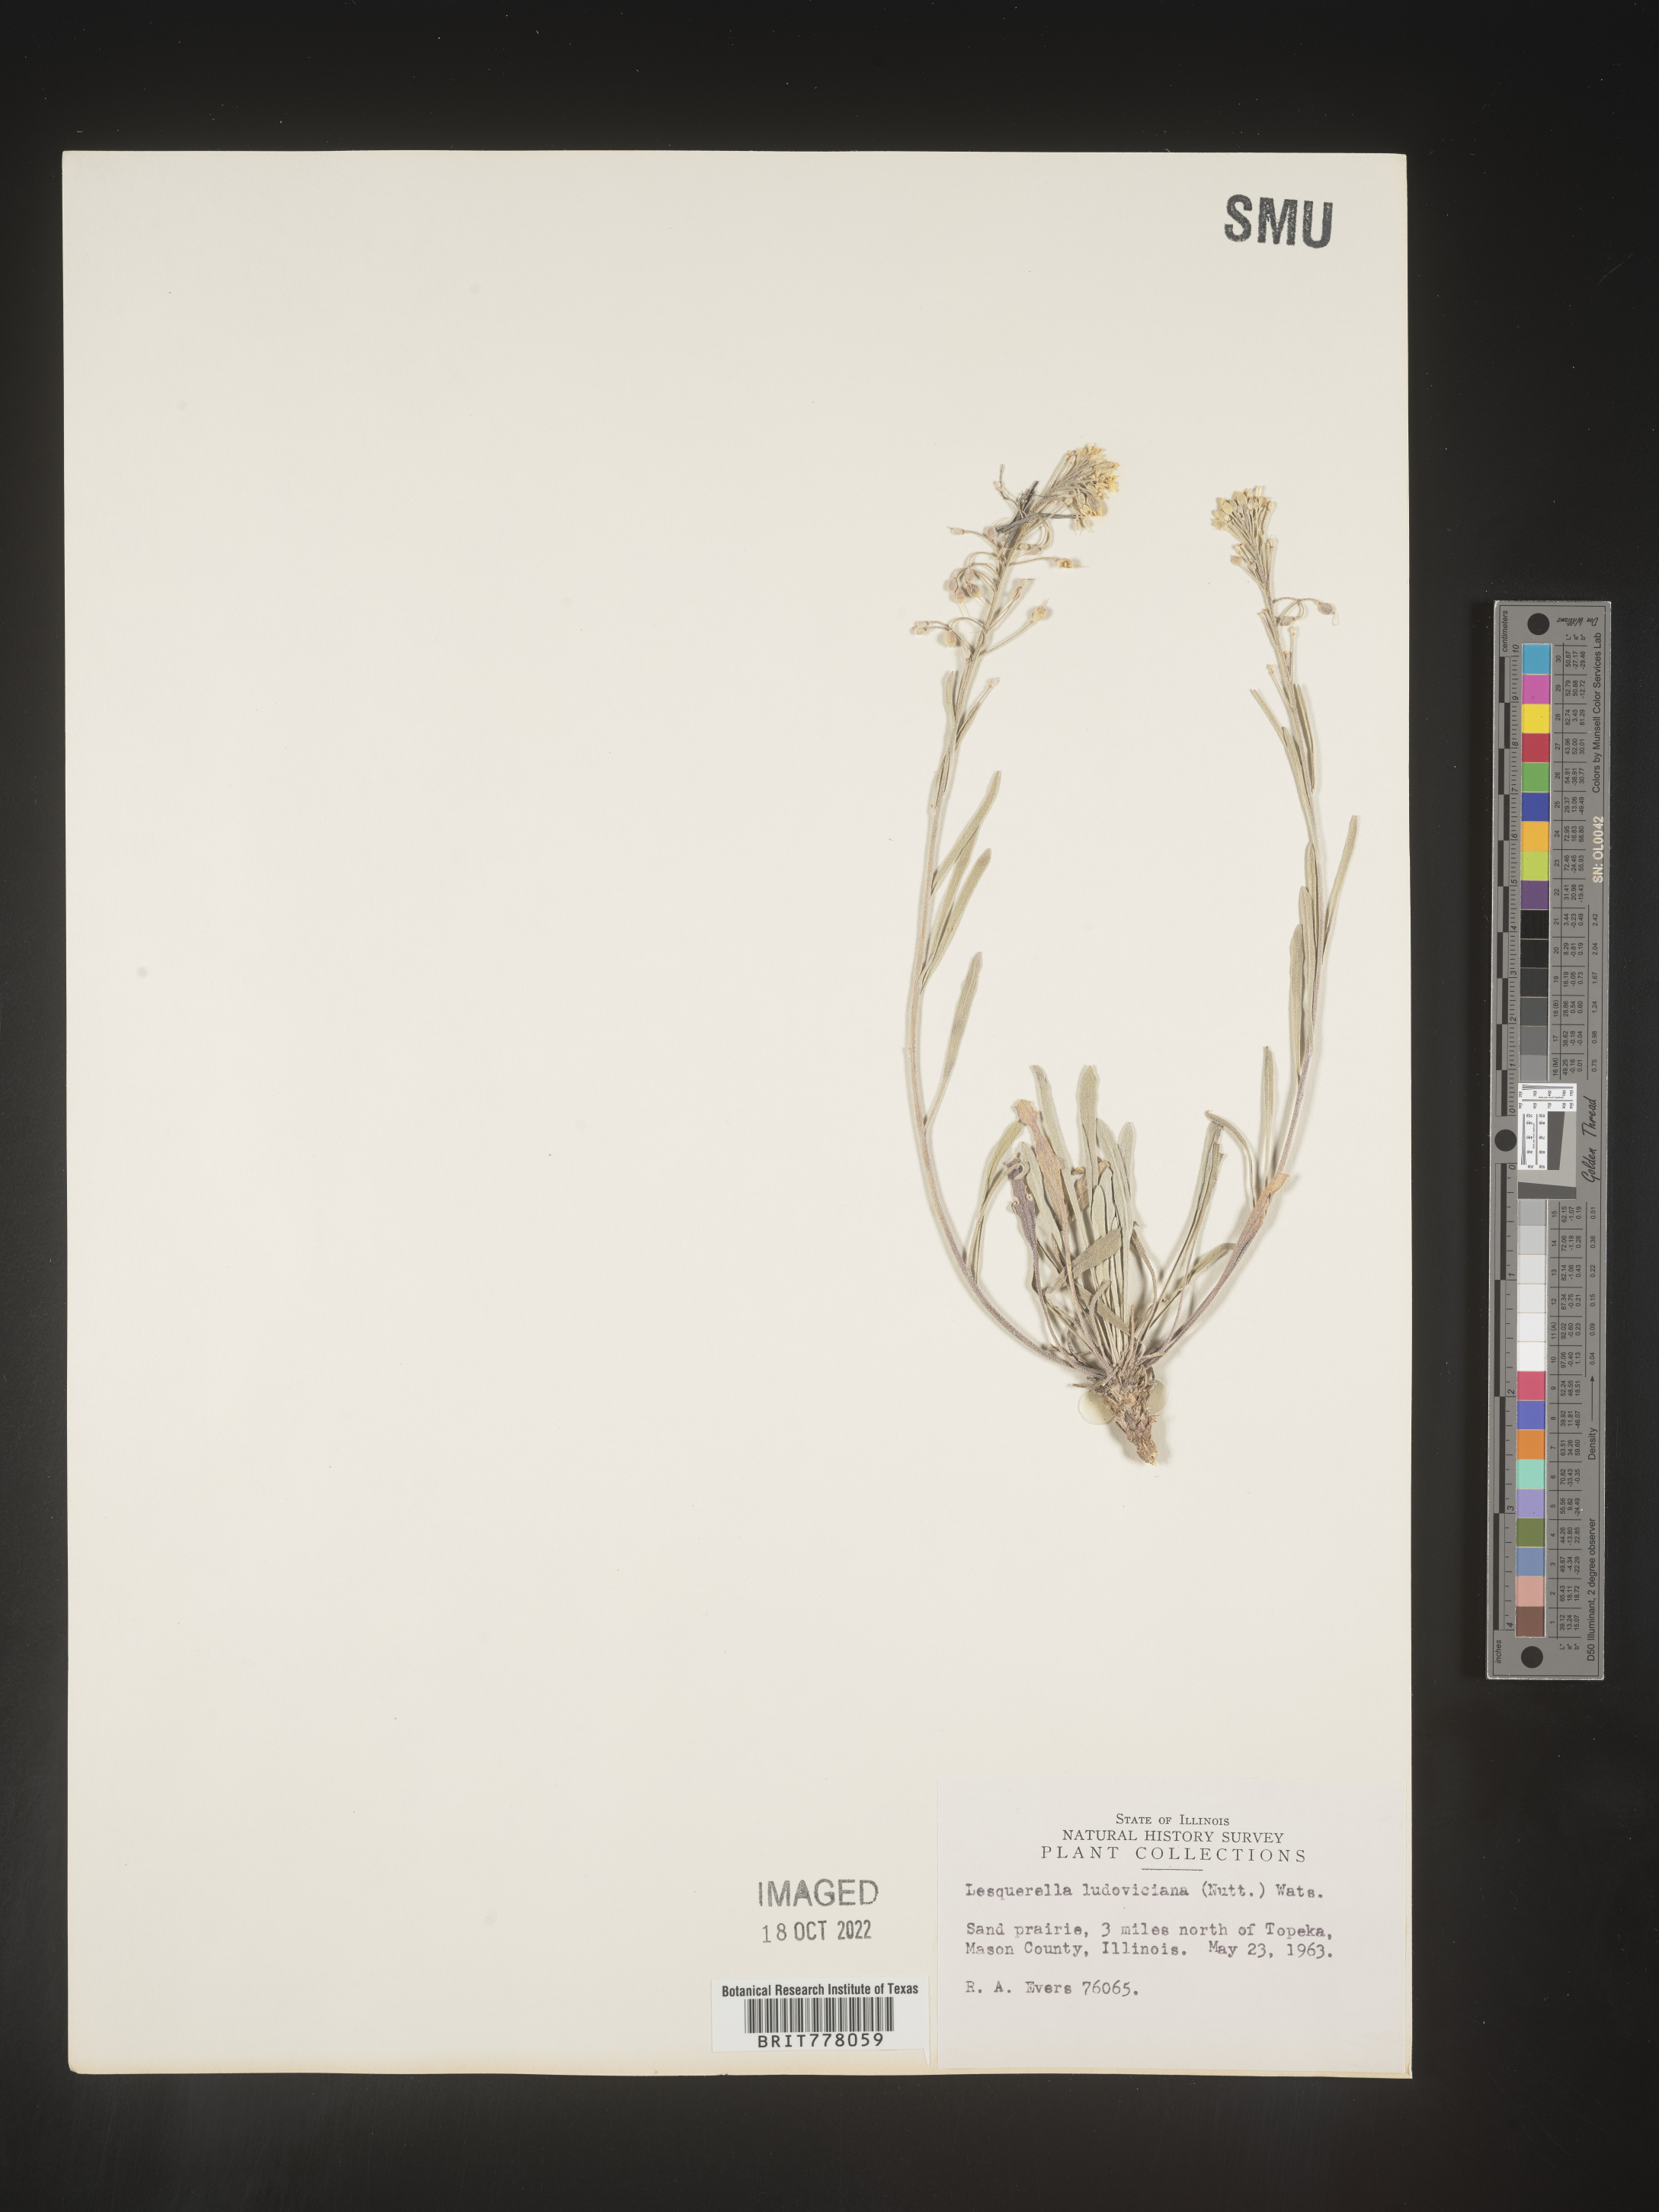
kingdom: Chromista
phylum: Cercozoa
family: Psammonobiotidae
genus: Lesquerella
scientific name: Lesquerella
